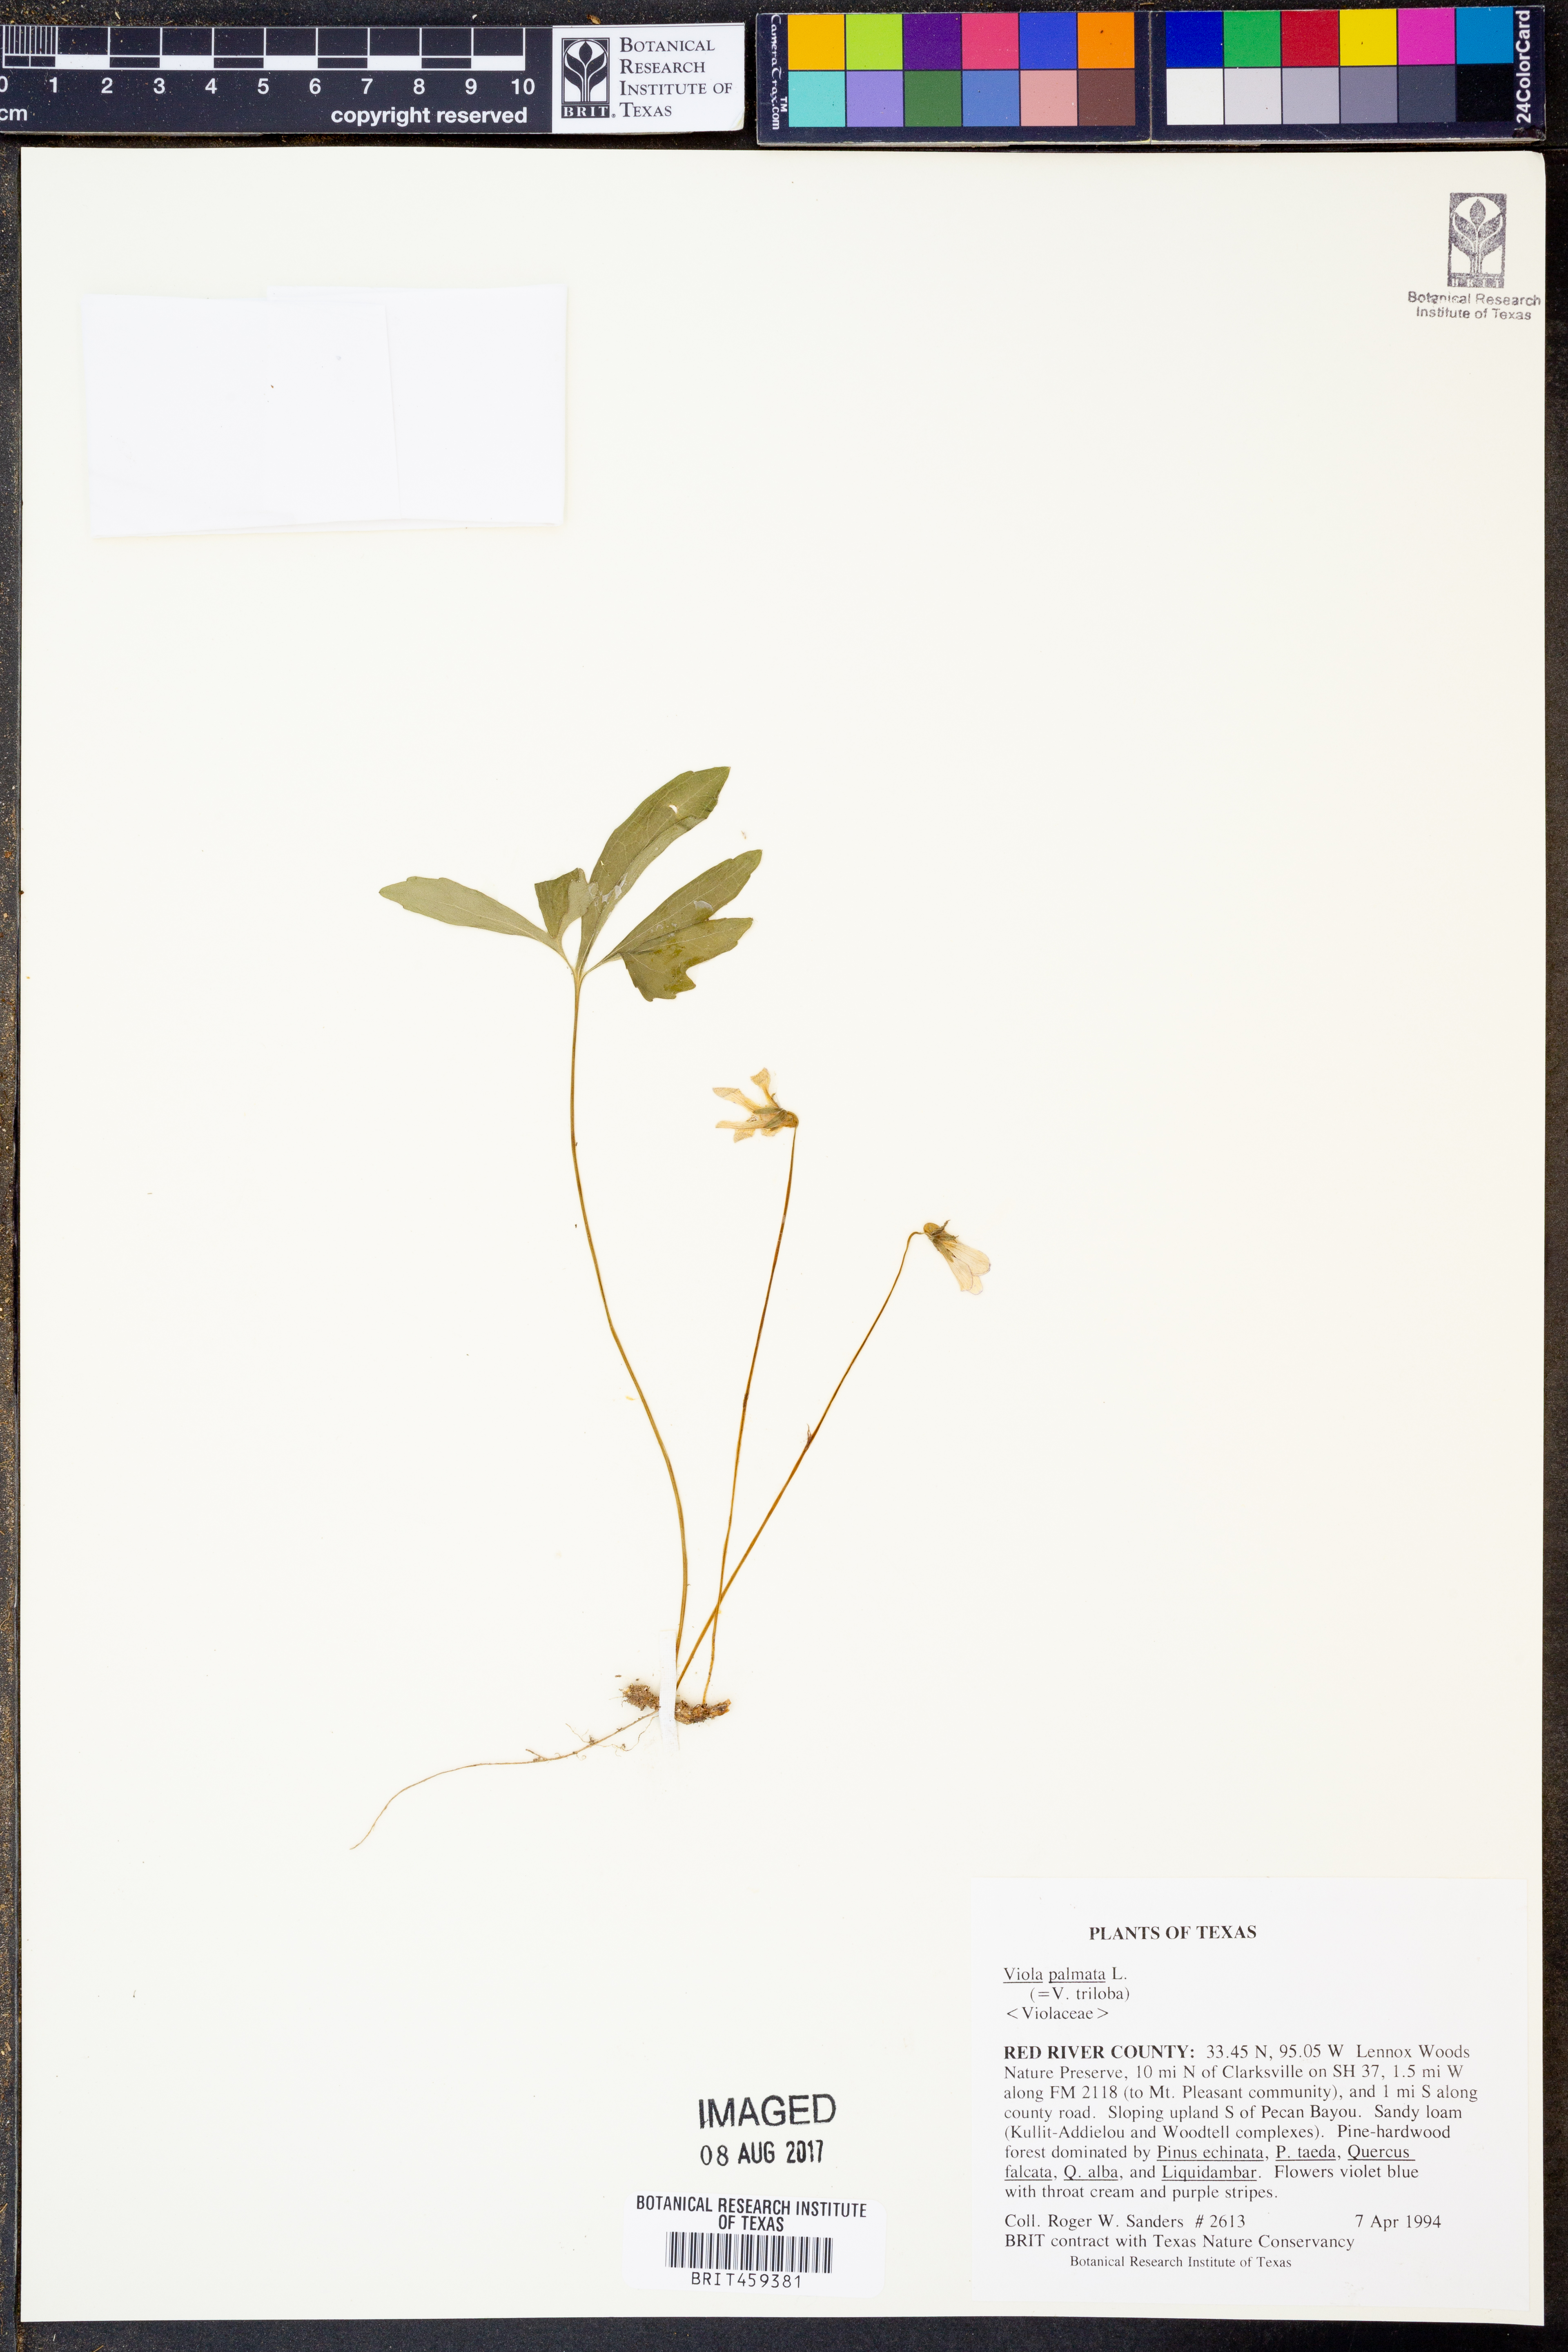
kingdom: Plantae
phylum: Tracheophyta
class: Magnoliopsida
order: Malpighiales
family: Violaceae
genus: Viola
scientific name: Viola palmata
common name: Early blue violet
